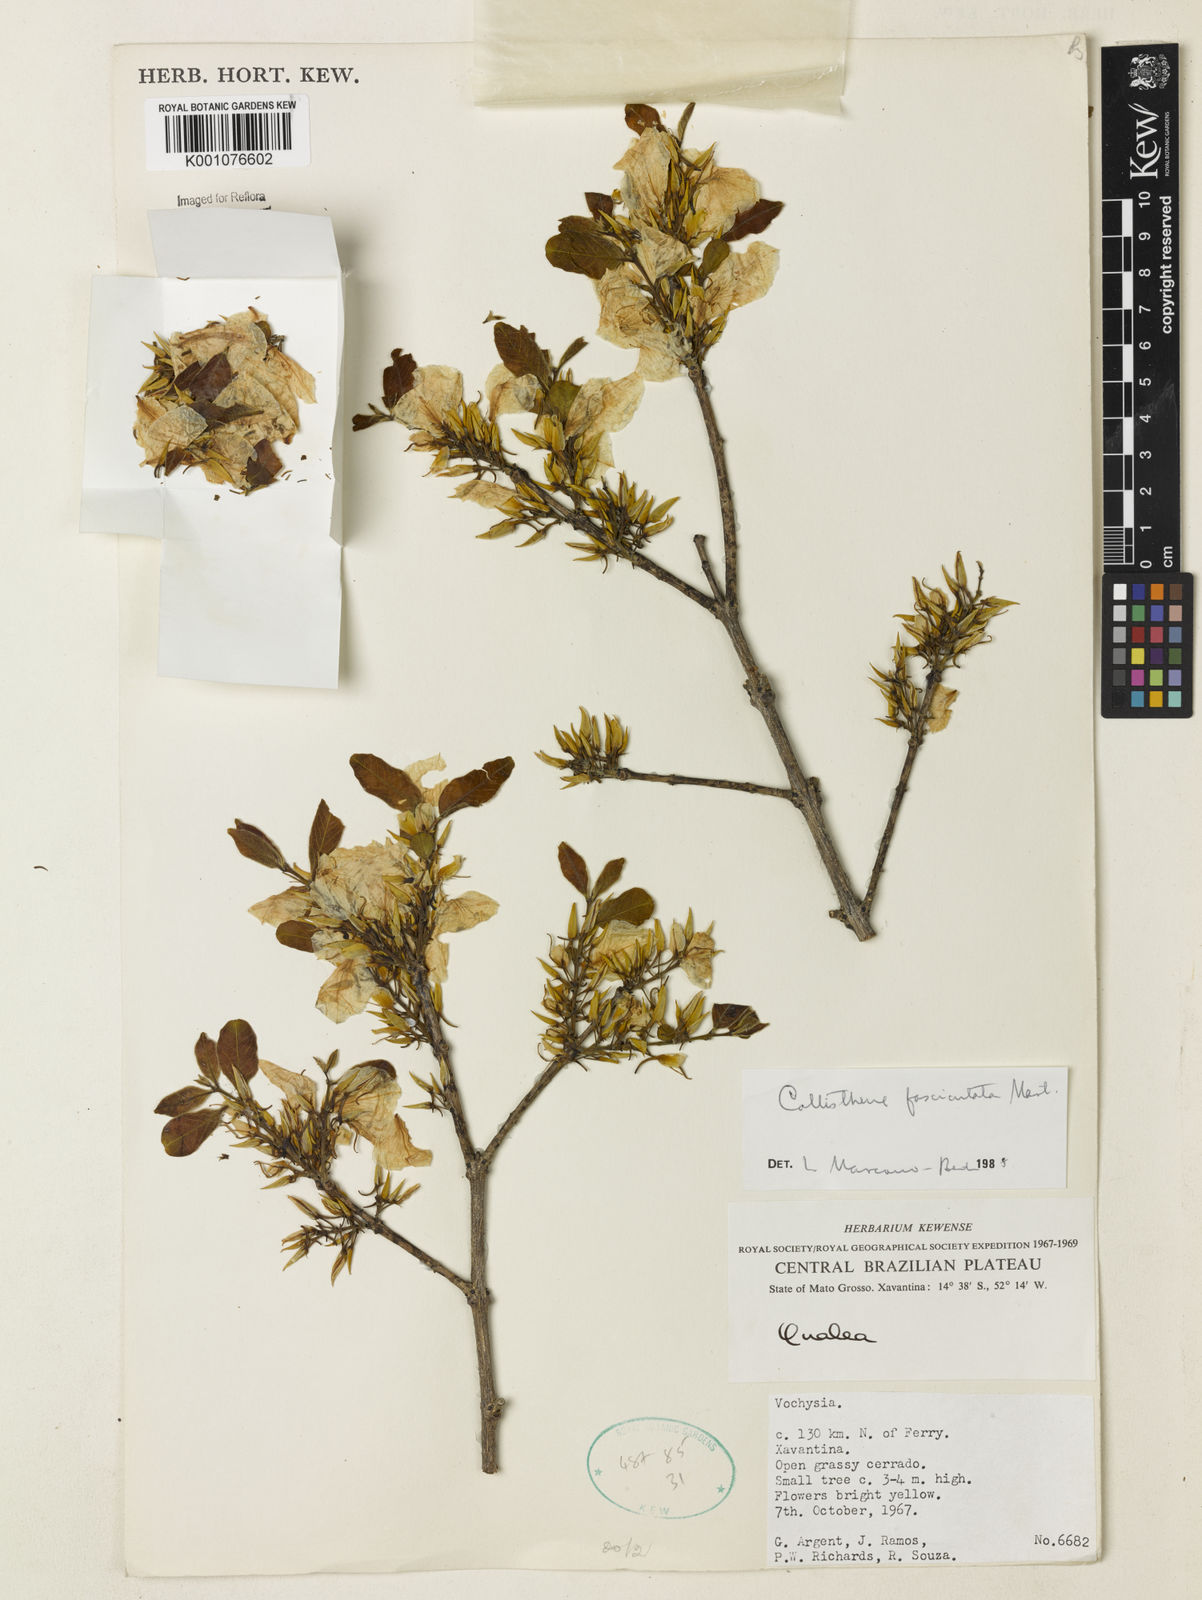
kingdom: Plantae
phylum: Tracheophyta
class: Magnoliopsida
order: Myrtales
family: Vochysiaceae
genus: Callisthene
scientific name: Callisthene fasciculata
